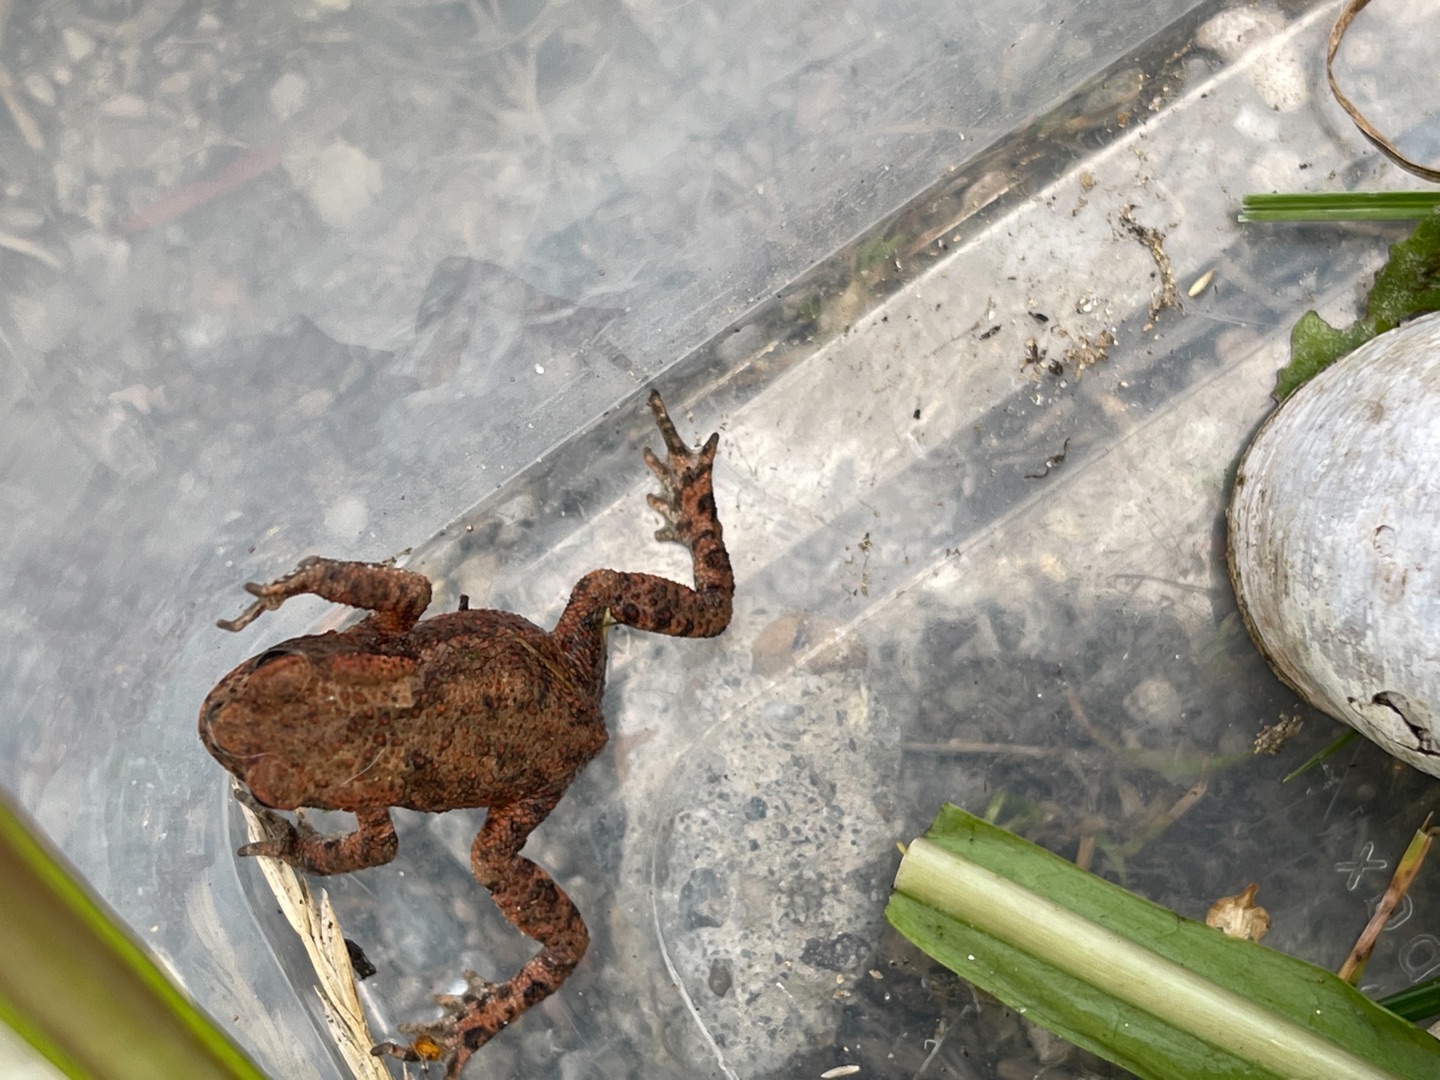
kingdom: Animalia
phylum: Chordata
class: Amphibia
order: Anura
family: Bufonidae
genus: Bufo
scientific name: Bufo bufo
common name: Skrubtudse
